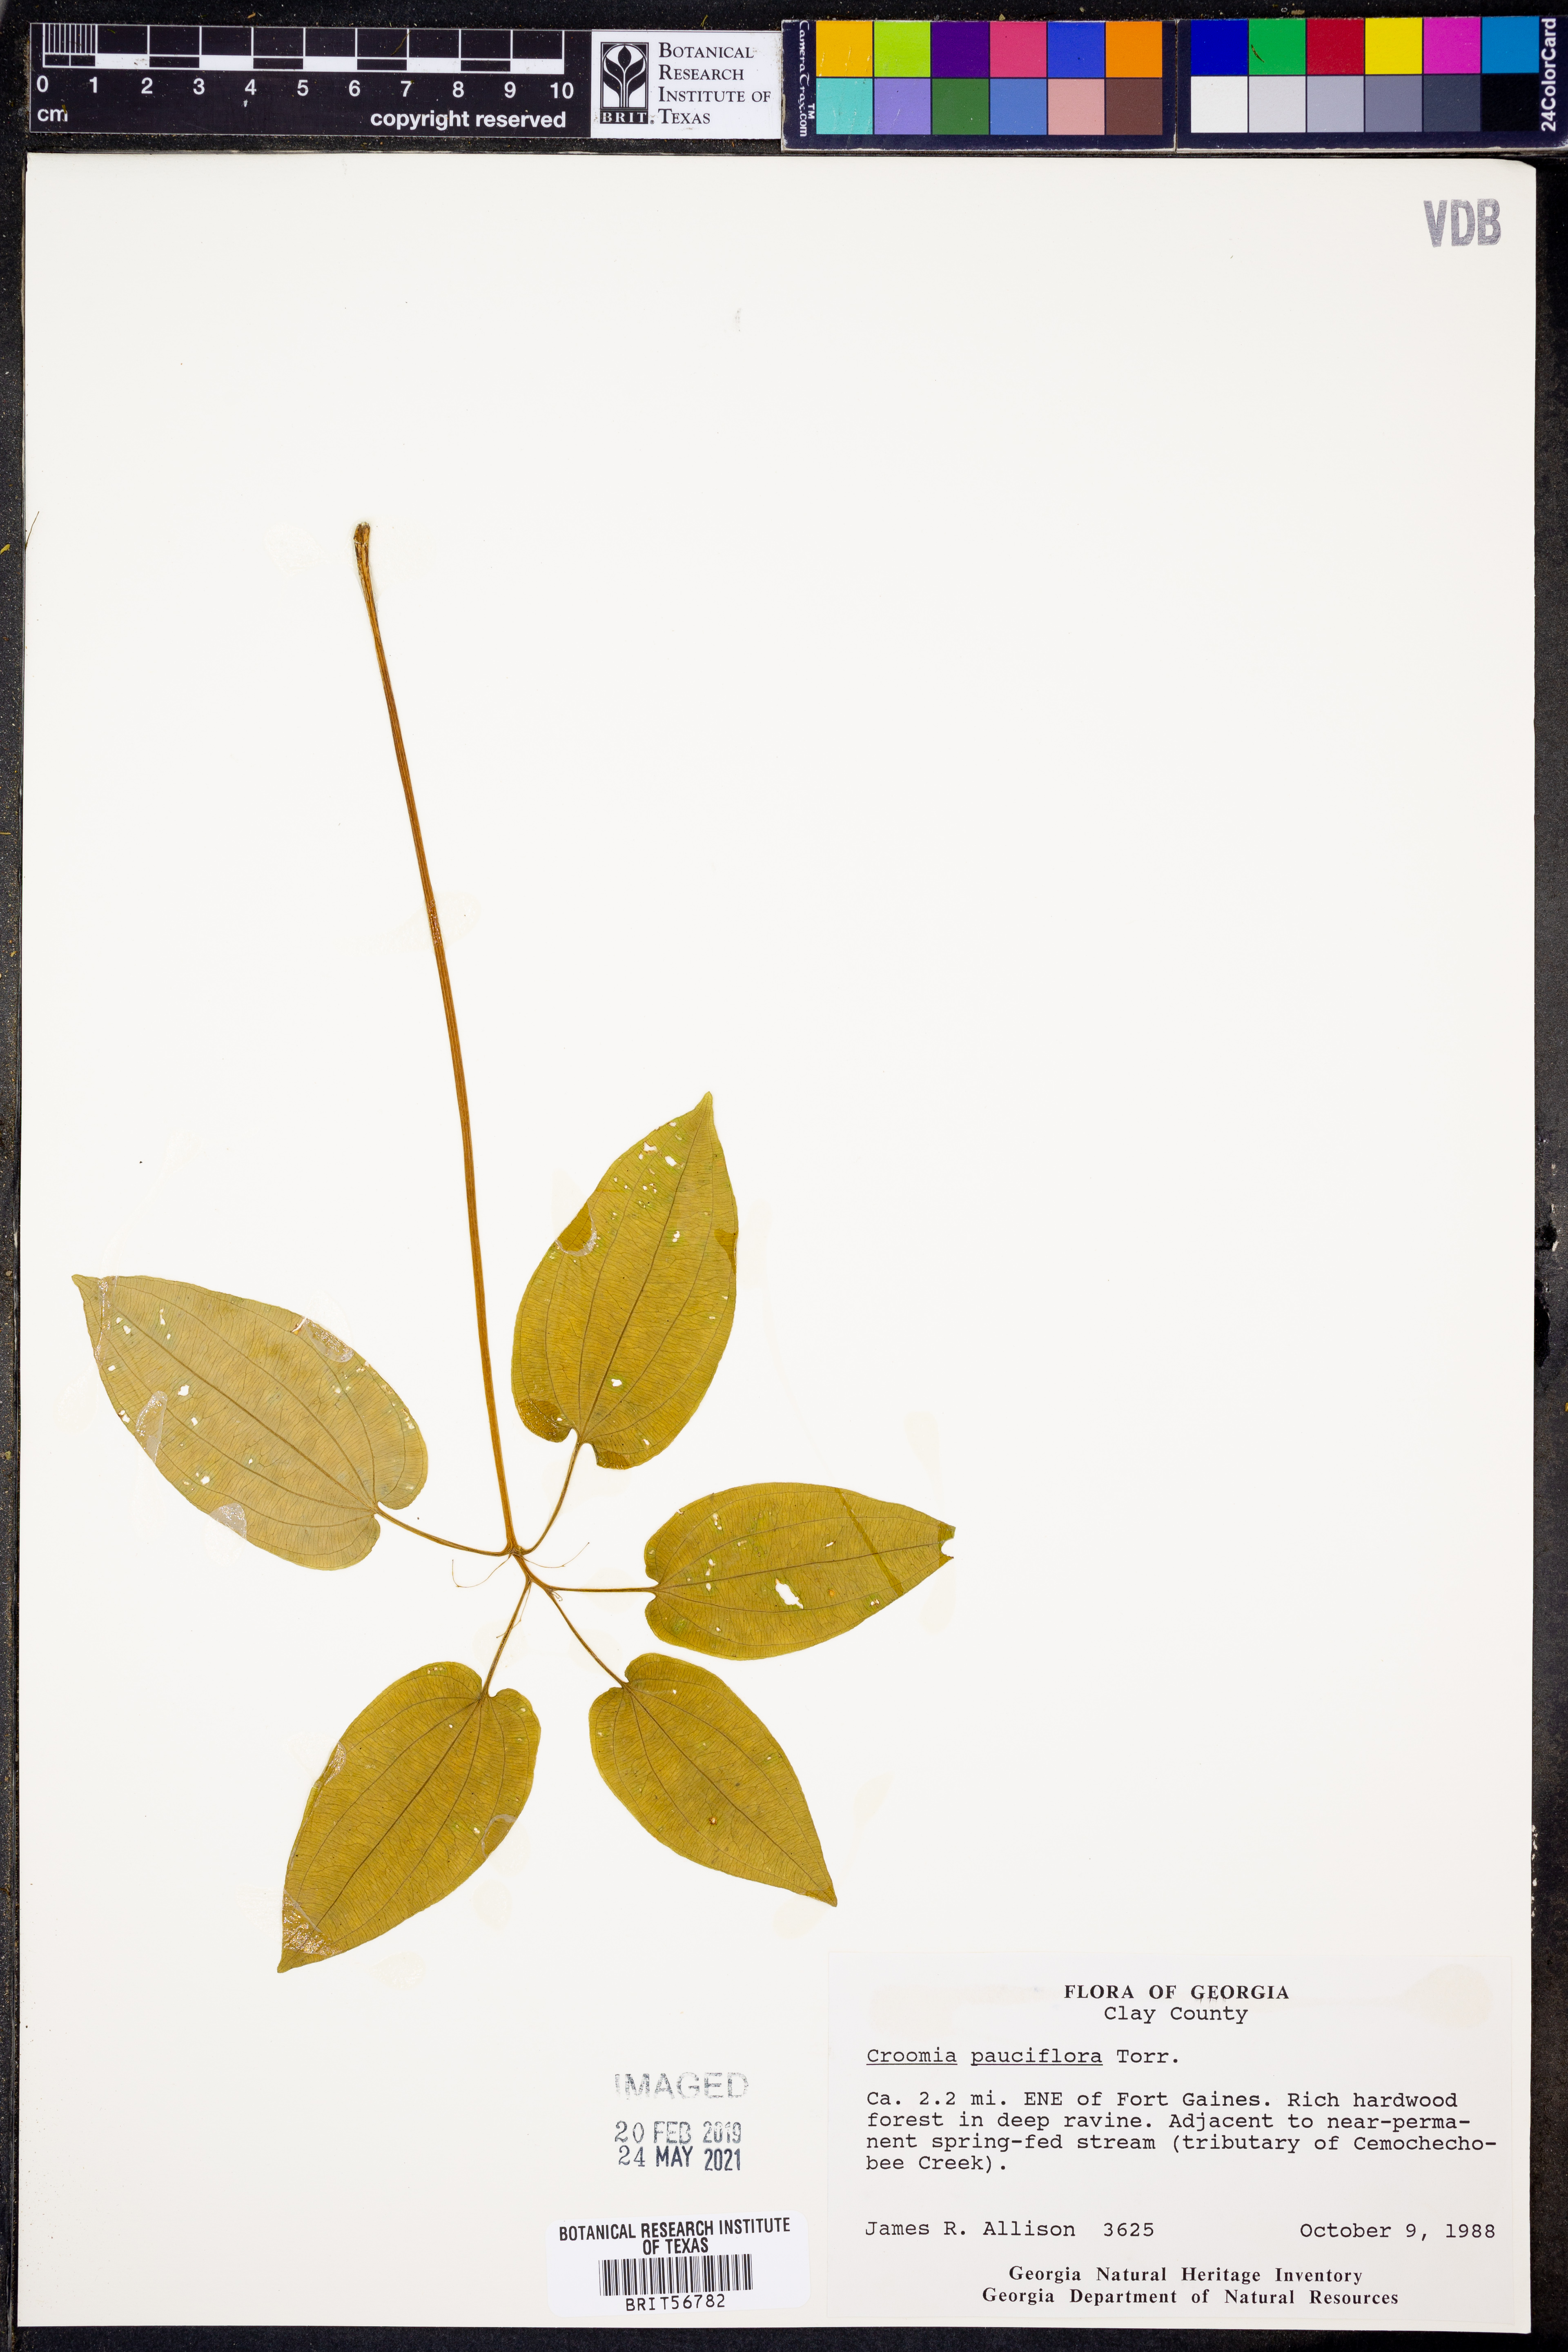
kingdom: Plantae
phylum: Tracheophyta
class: Liliopsida
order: Pandanales
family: Stemonaceae
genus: Croomia
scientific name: Croomia pauciflora
